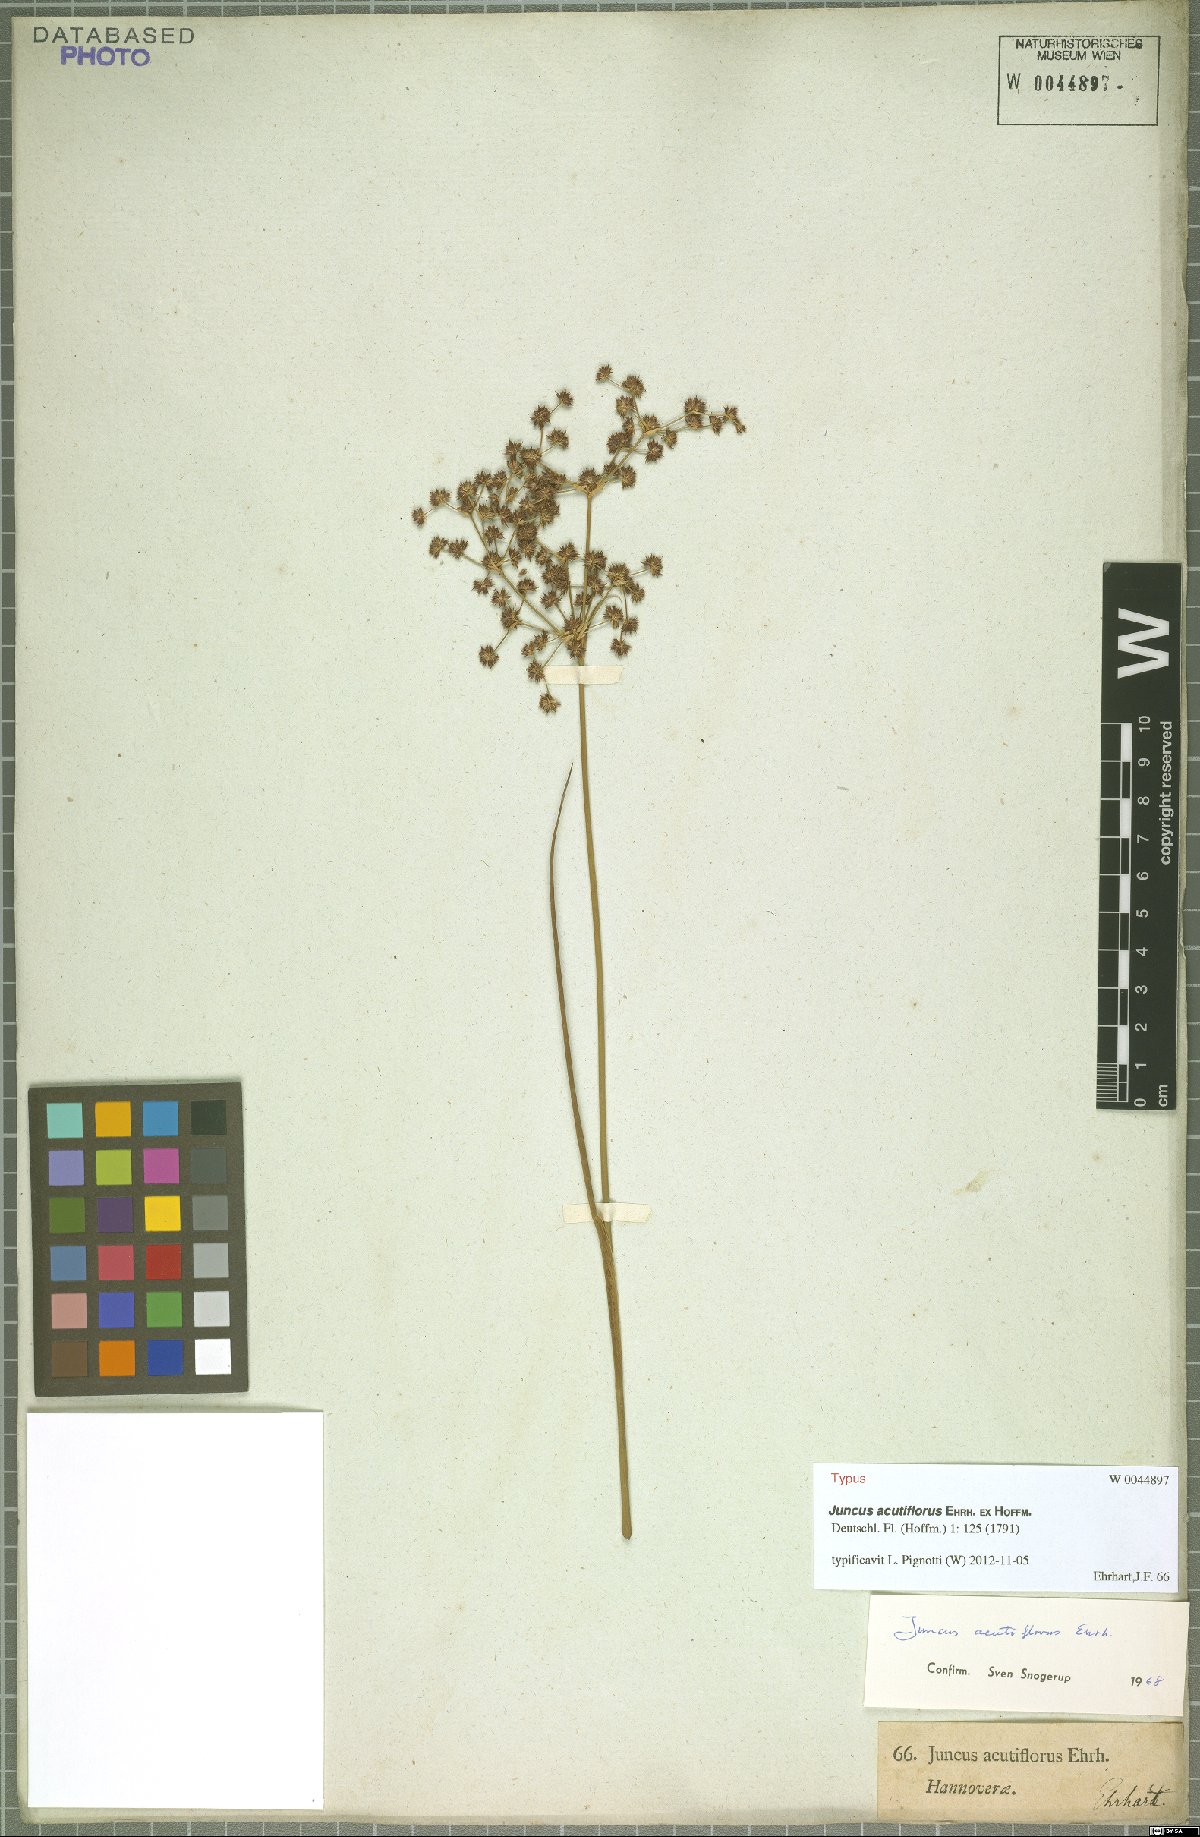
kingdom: Plantae
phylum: Tracheophyta
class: Liliopsida
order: Poales
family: Juncaceae
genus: Juncus
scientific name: Juncus acutiflorus
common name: Sharp-flowered rush
